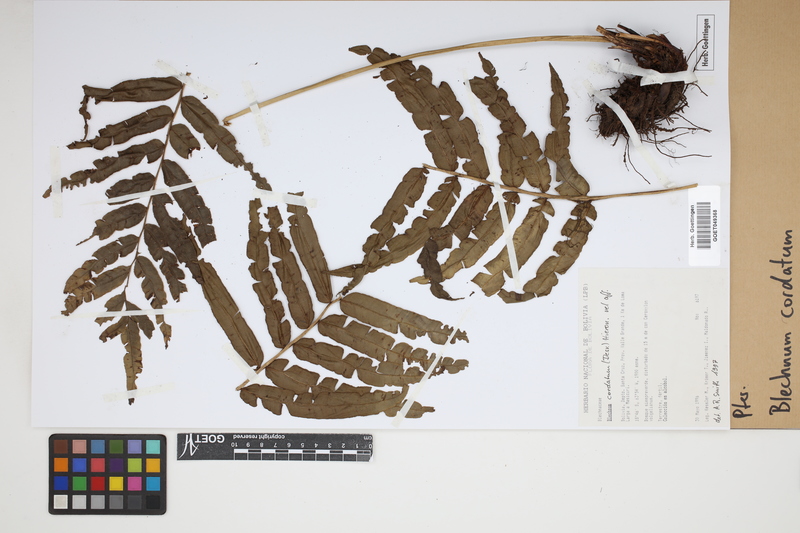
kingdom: Plantae
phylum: Tracheophyta
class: Polypodiopsida
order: Polypodiales
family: Blechnaceae
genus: Parablechnum
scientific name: Parablechnum cordatum
